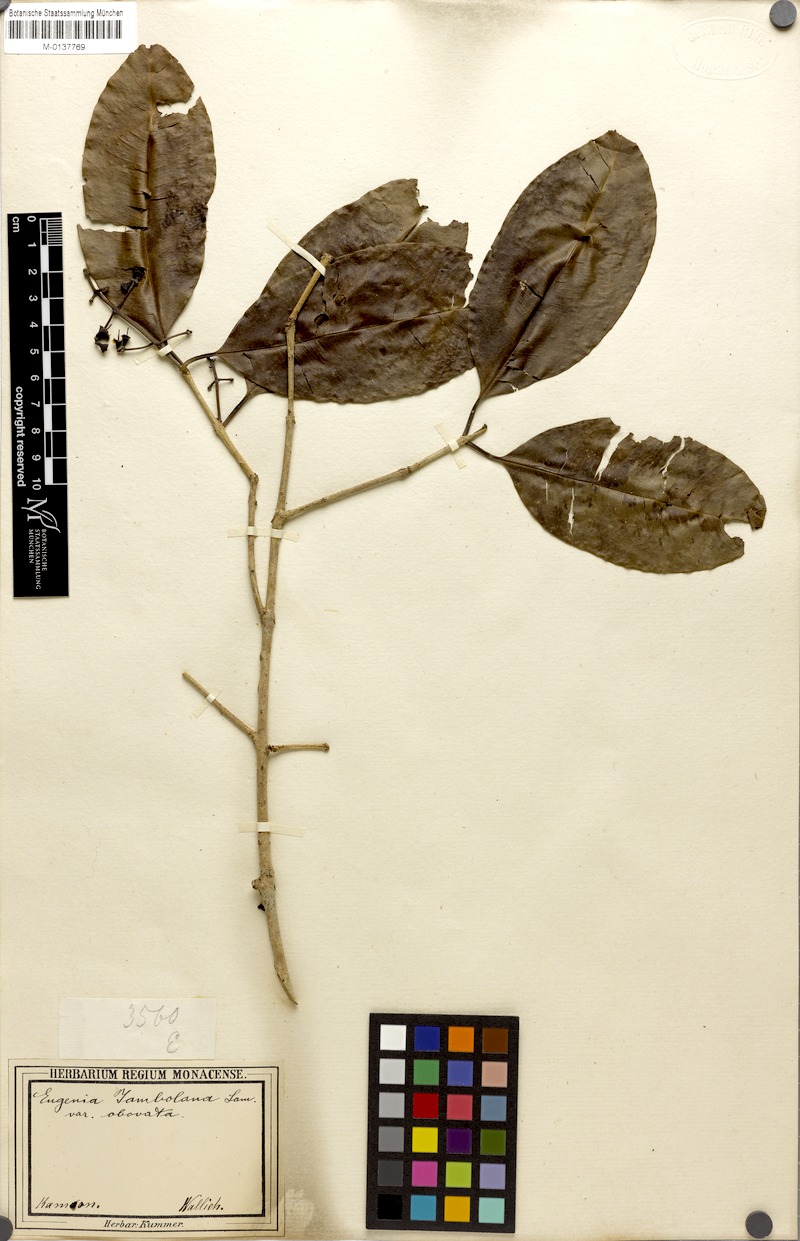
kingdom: Plantae
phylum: Tracheophyta
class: Magnoliopsida
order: Myrtales
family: Myrtaceae
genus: Syzygium
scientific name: Syzygium cumini
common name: Java plum
